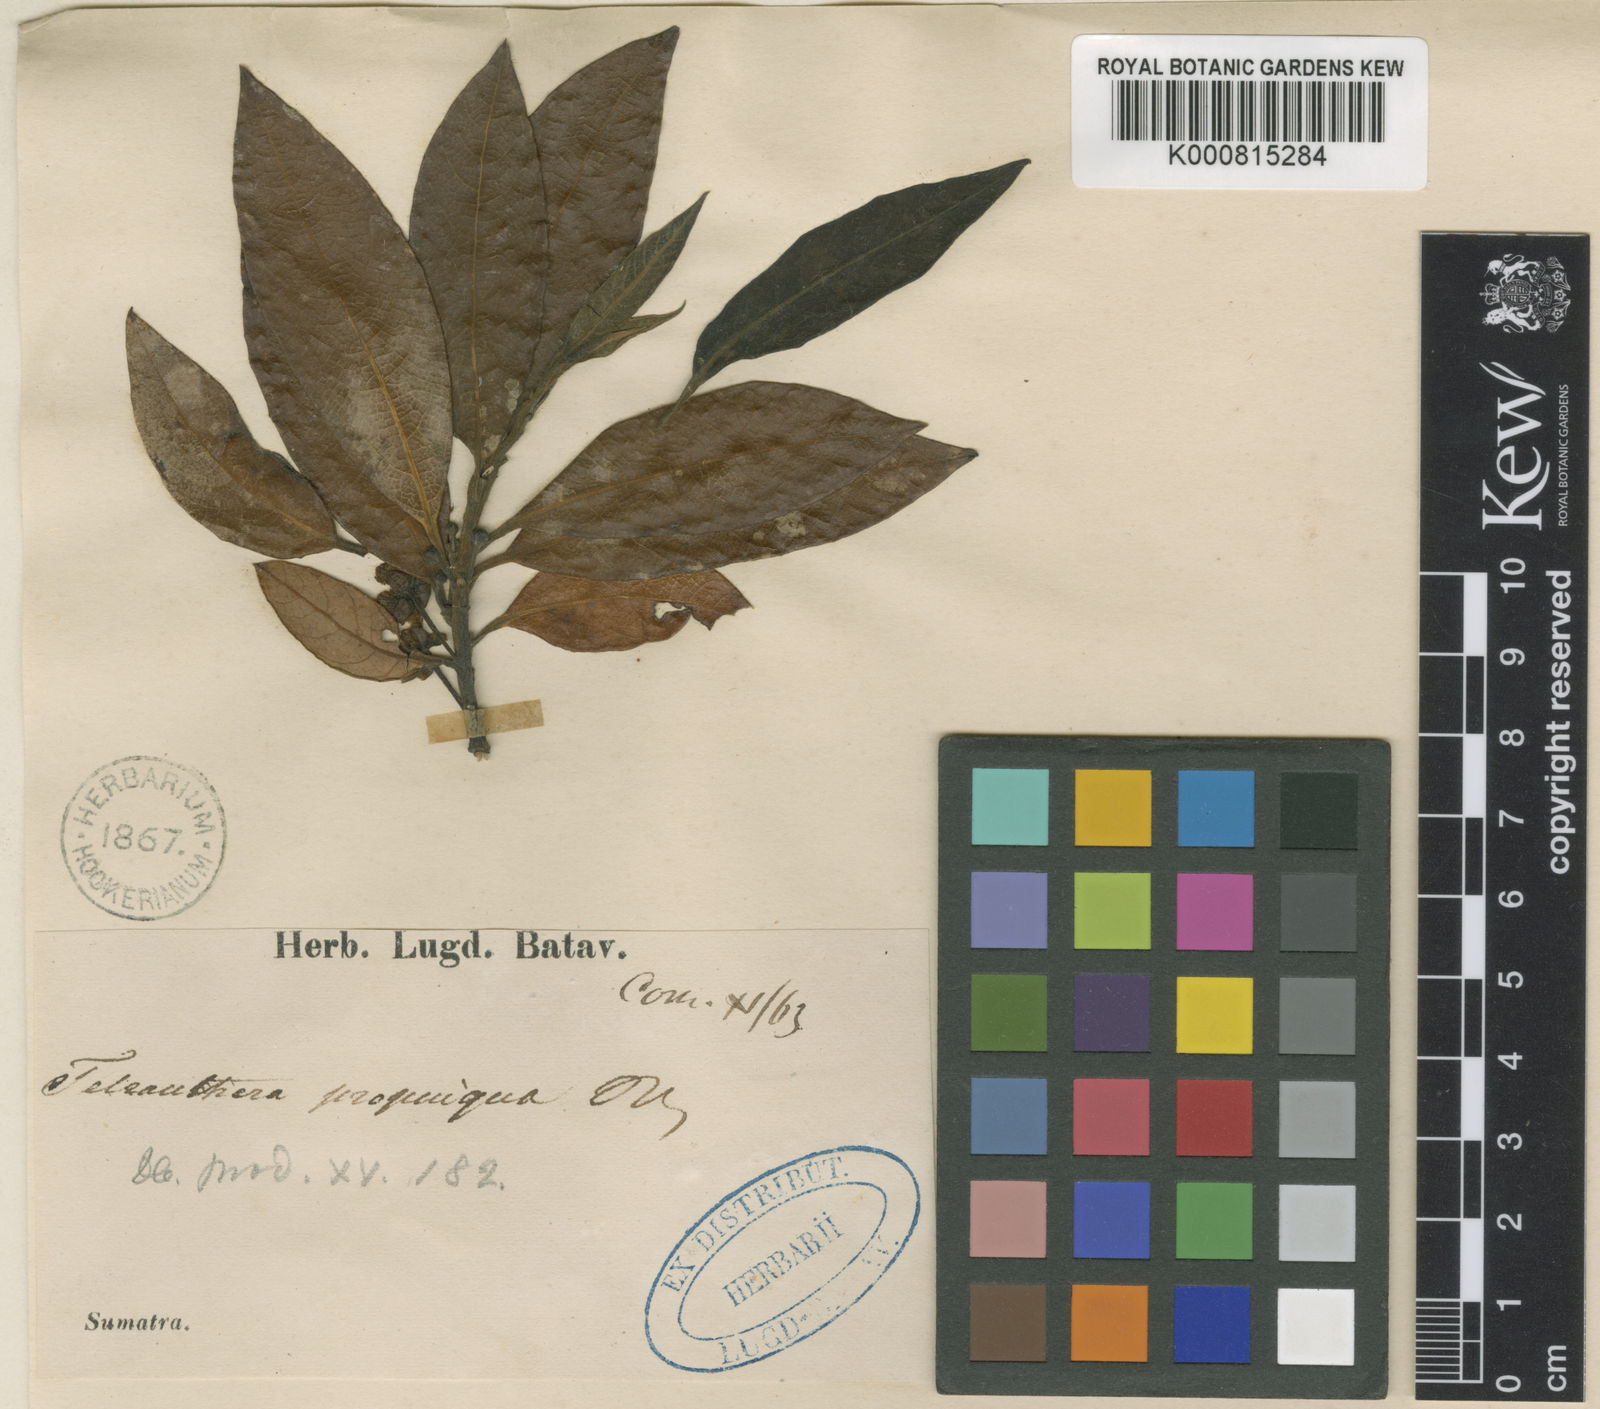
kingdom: Plantae
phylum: Tracheophyta
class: Magnoliopsida
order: Laurales
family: Lauraceae
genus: Litsea
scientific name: Litsea propinqua
